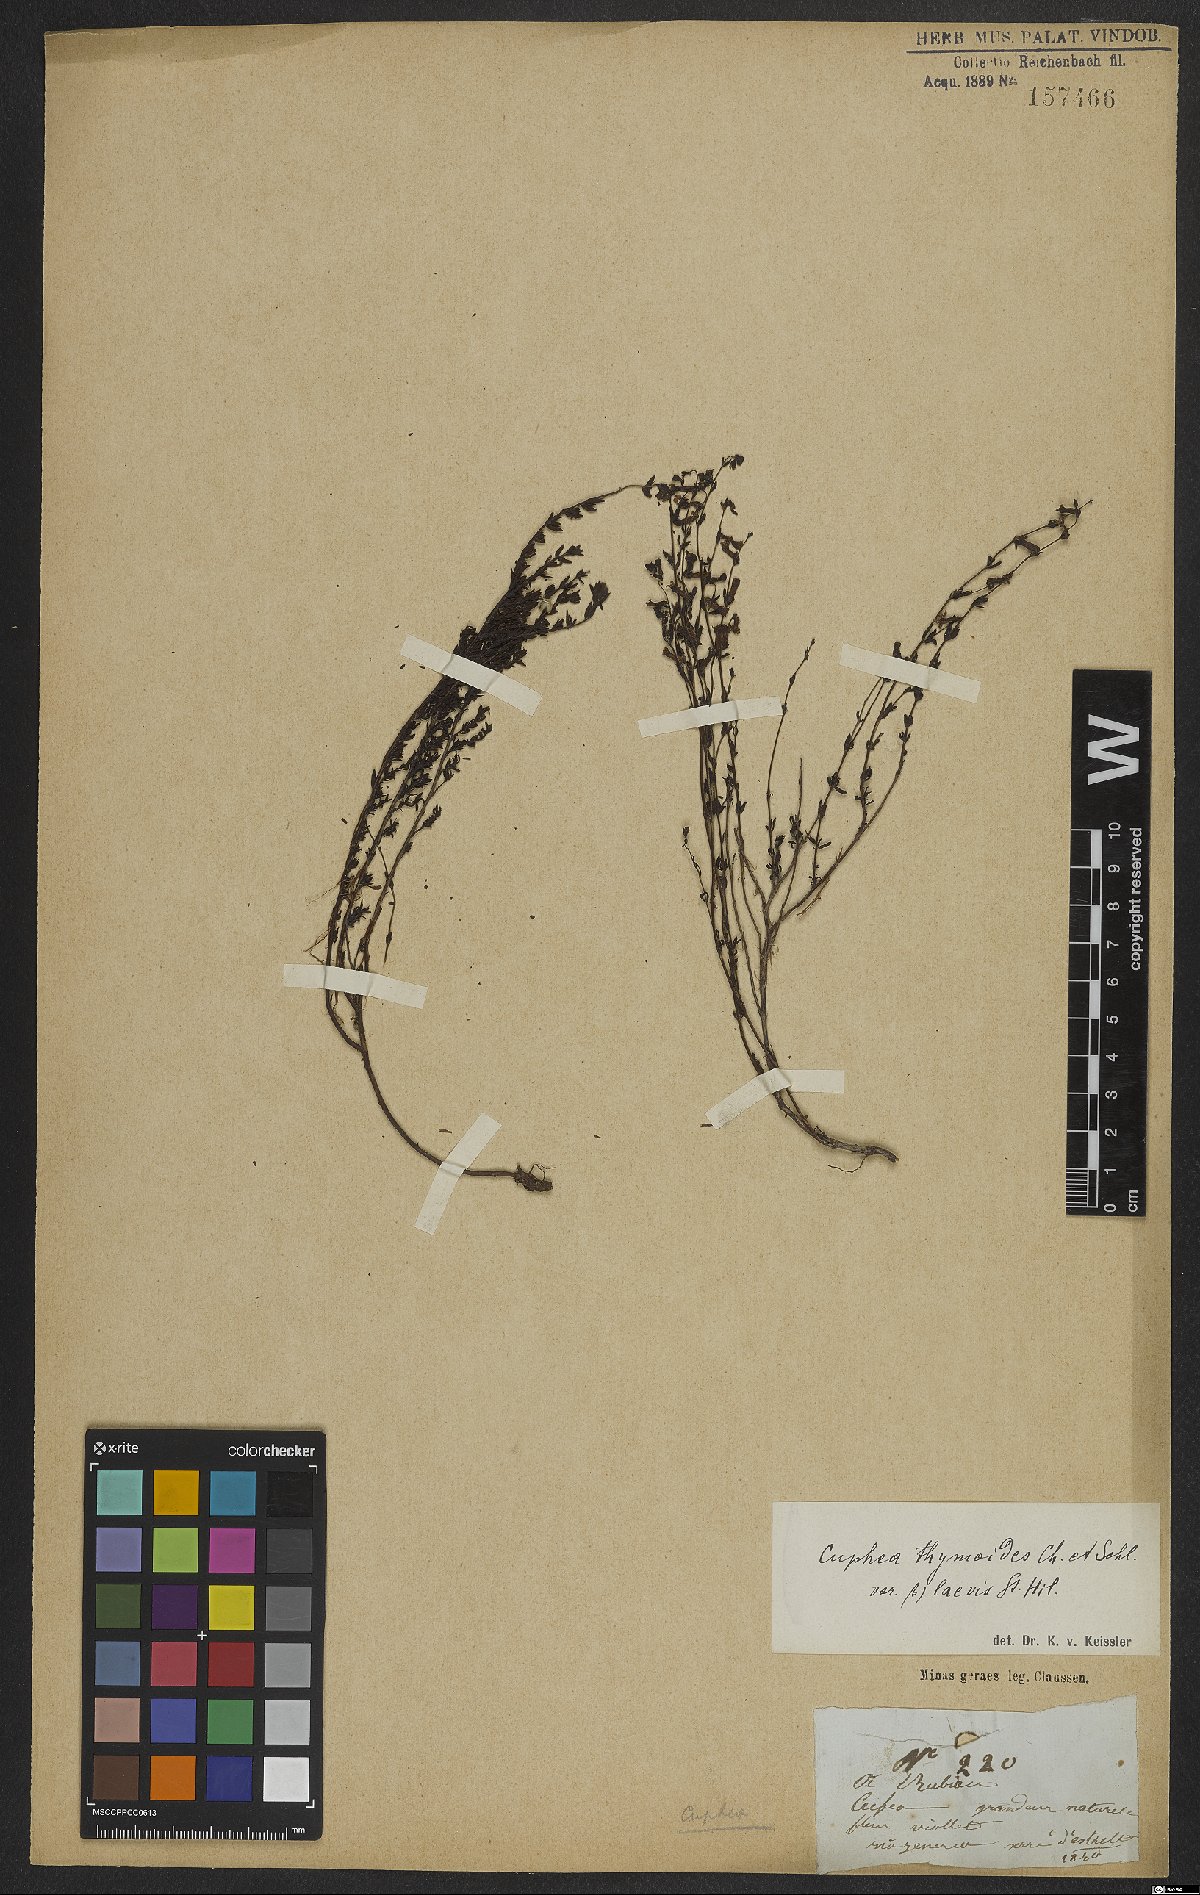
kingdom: Plantae
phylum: Tracheophyta
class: Magnoliopsida
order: Myrtales
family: Lythraceae
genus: Cuphea
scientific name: Cuphea thymoides
